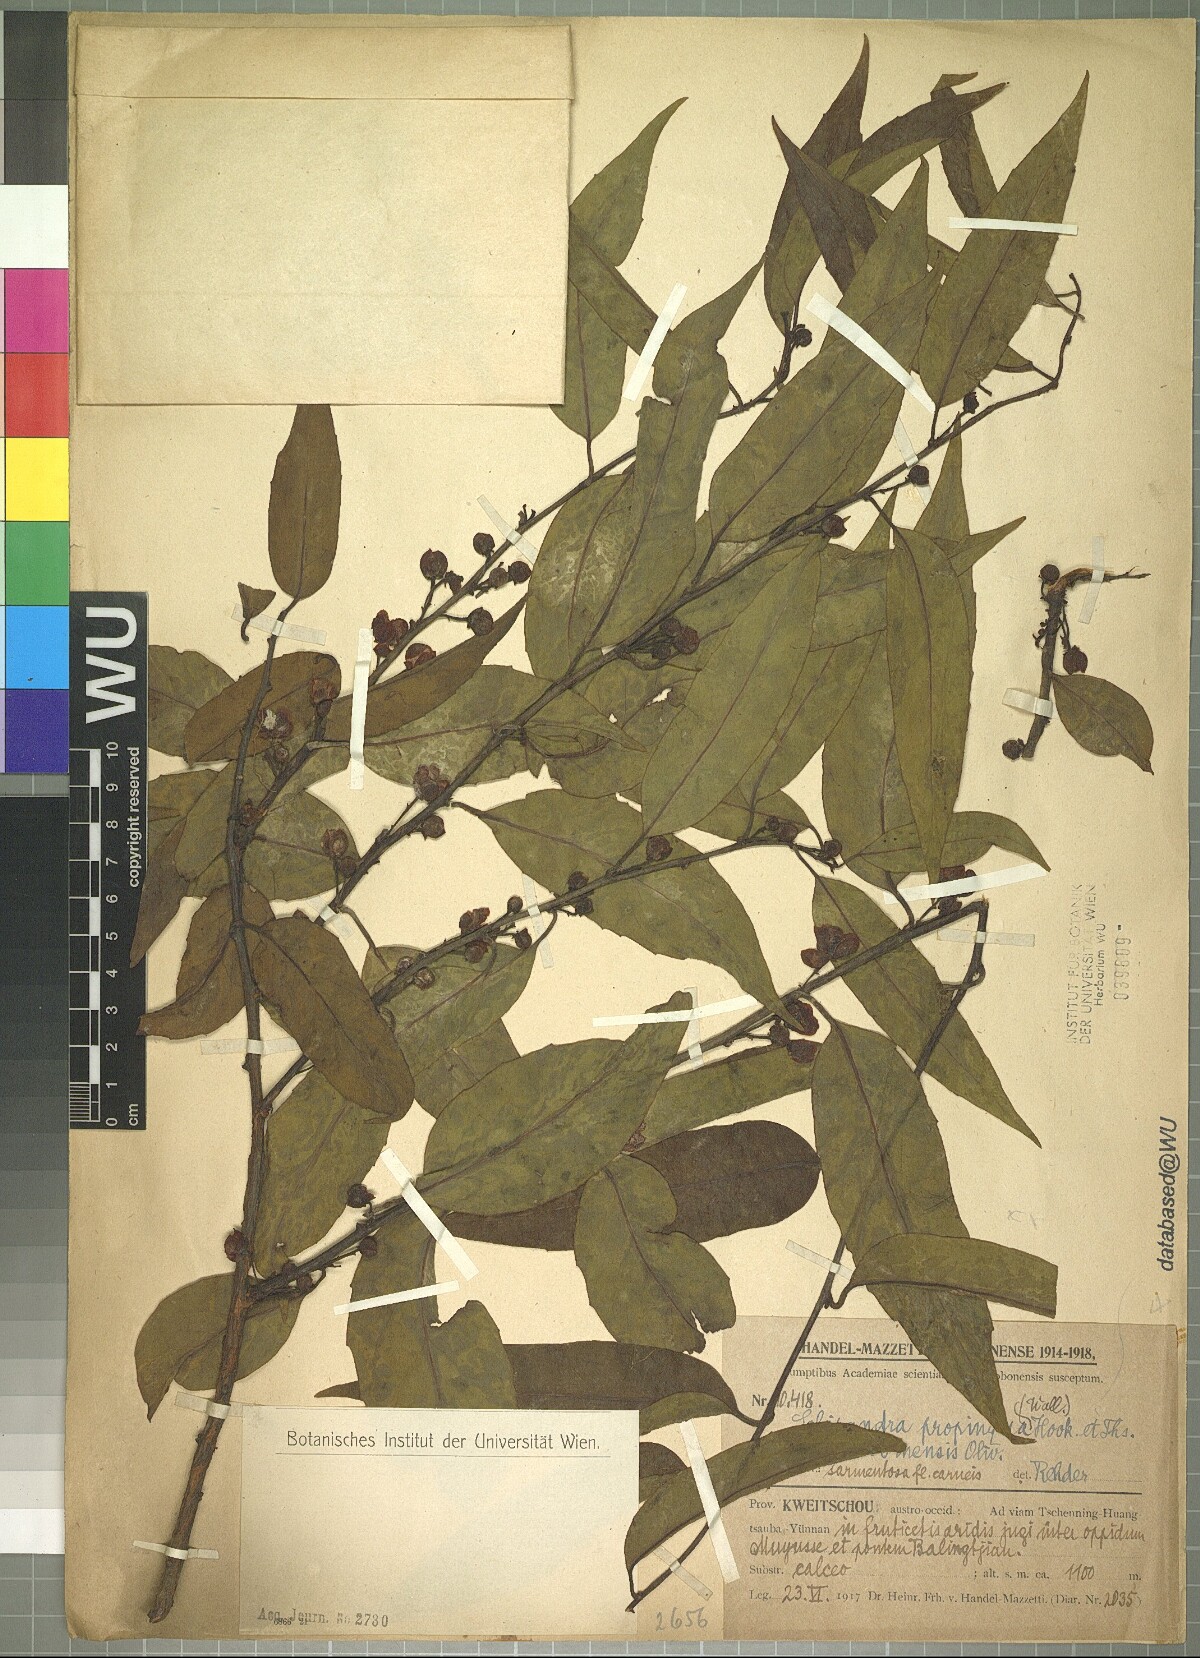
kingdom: Plantae
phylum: Tracheophyta
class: Magnoliopsida
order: Austrobaileyales
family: Schisandraceae
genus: Schisandra
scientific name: Schisandra propinqua
